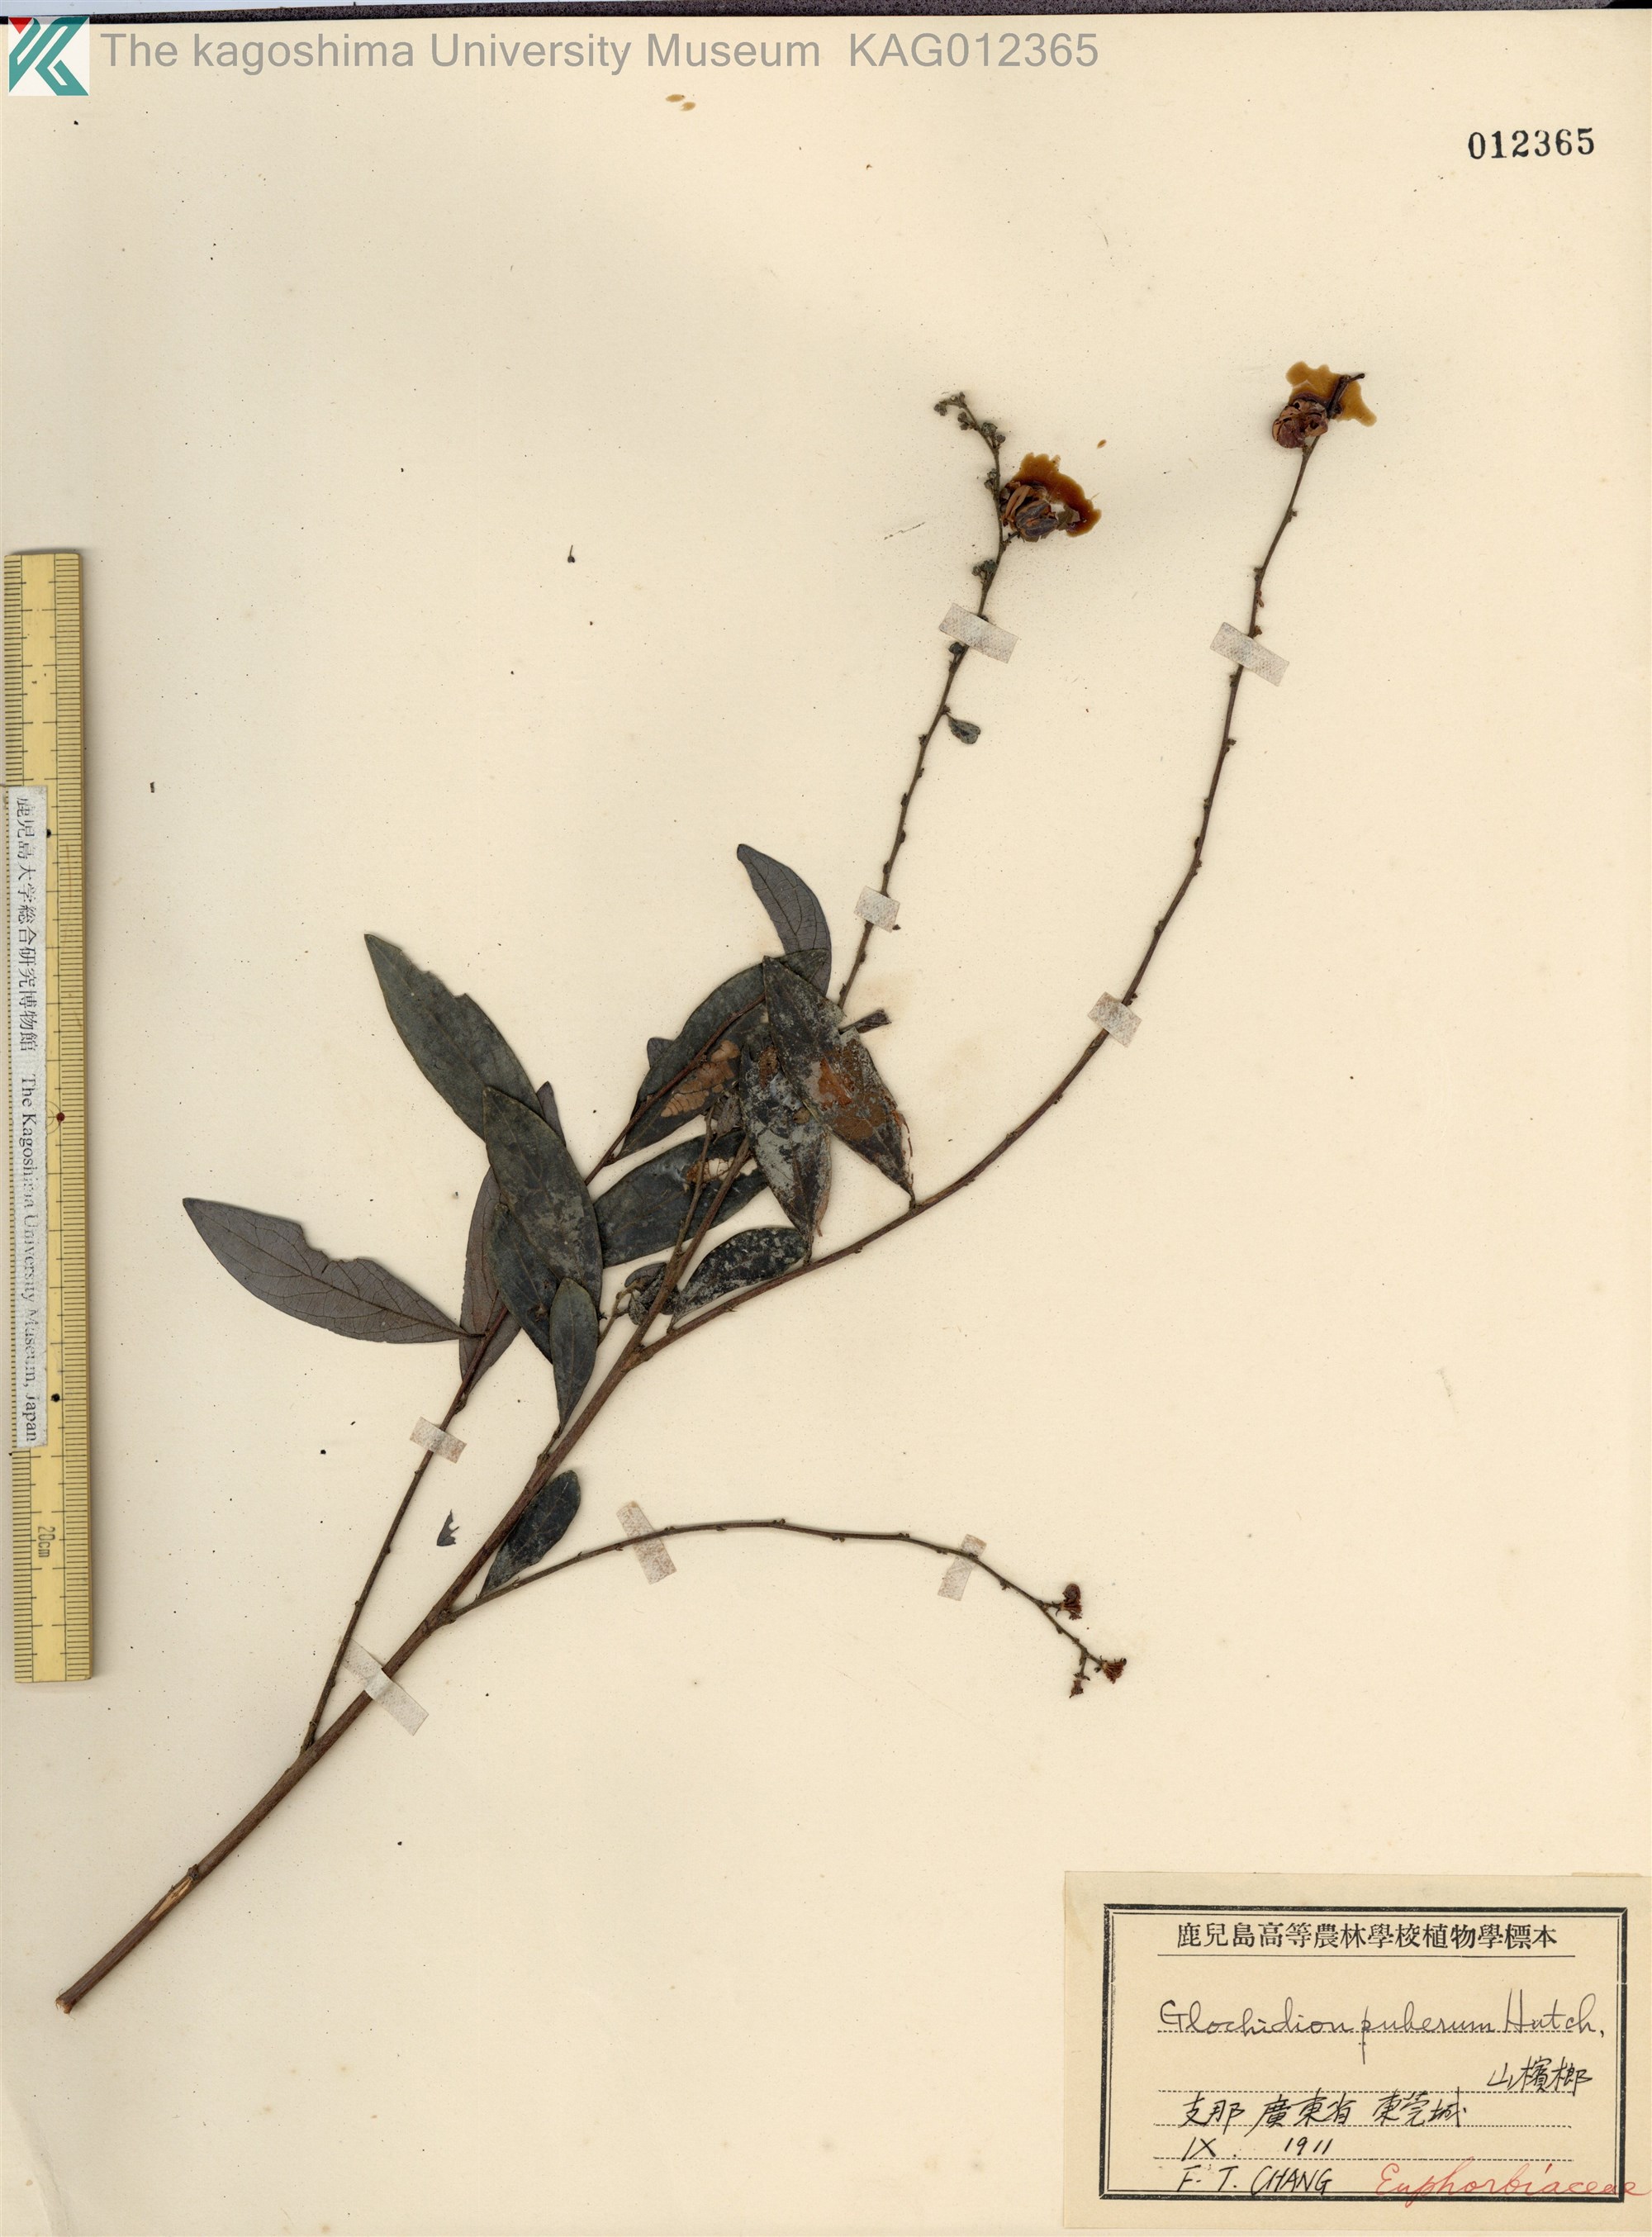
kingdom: Plantae
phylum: Tracheophyta
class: Magnoliopsida
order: Malpighiales
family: Phyllanthaceae
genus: Glochidion
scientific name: Glochidion puberum
